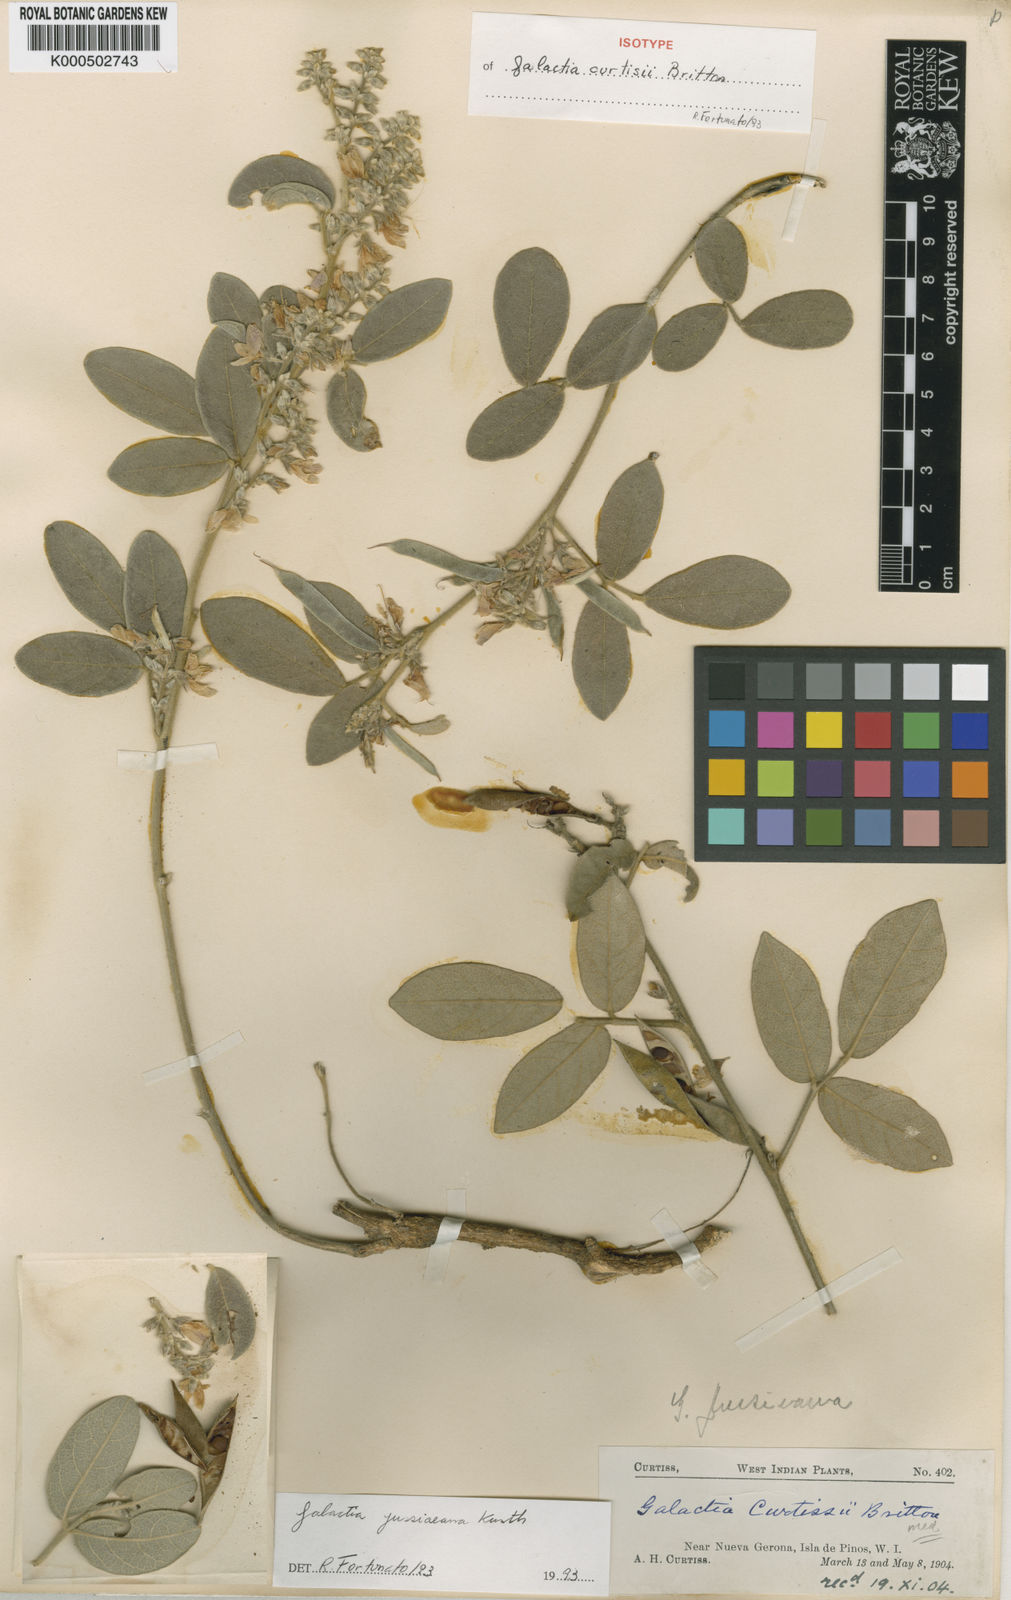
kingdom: Plantae
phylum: Tracheophyta
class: Magnoliopsida
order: Fabales
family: Fabaceae
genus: Galactia
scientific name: Galactia jussiaeana
